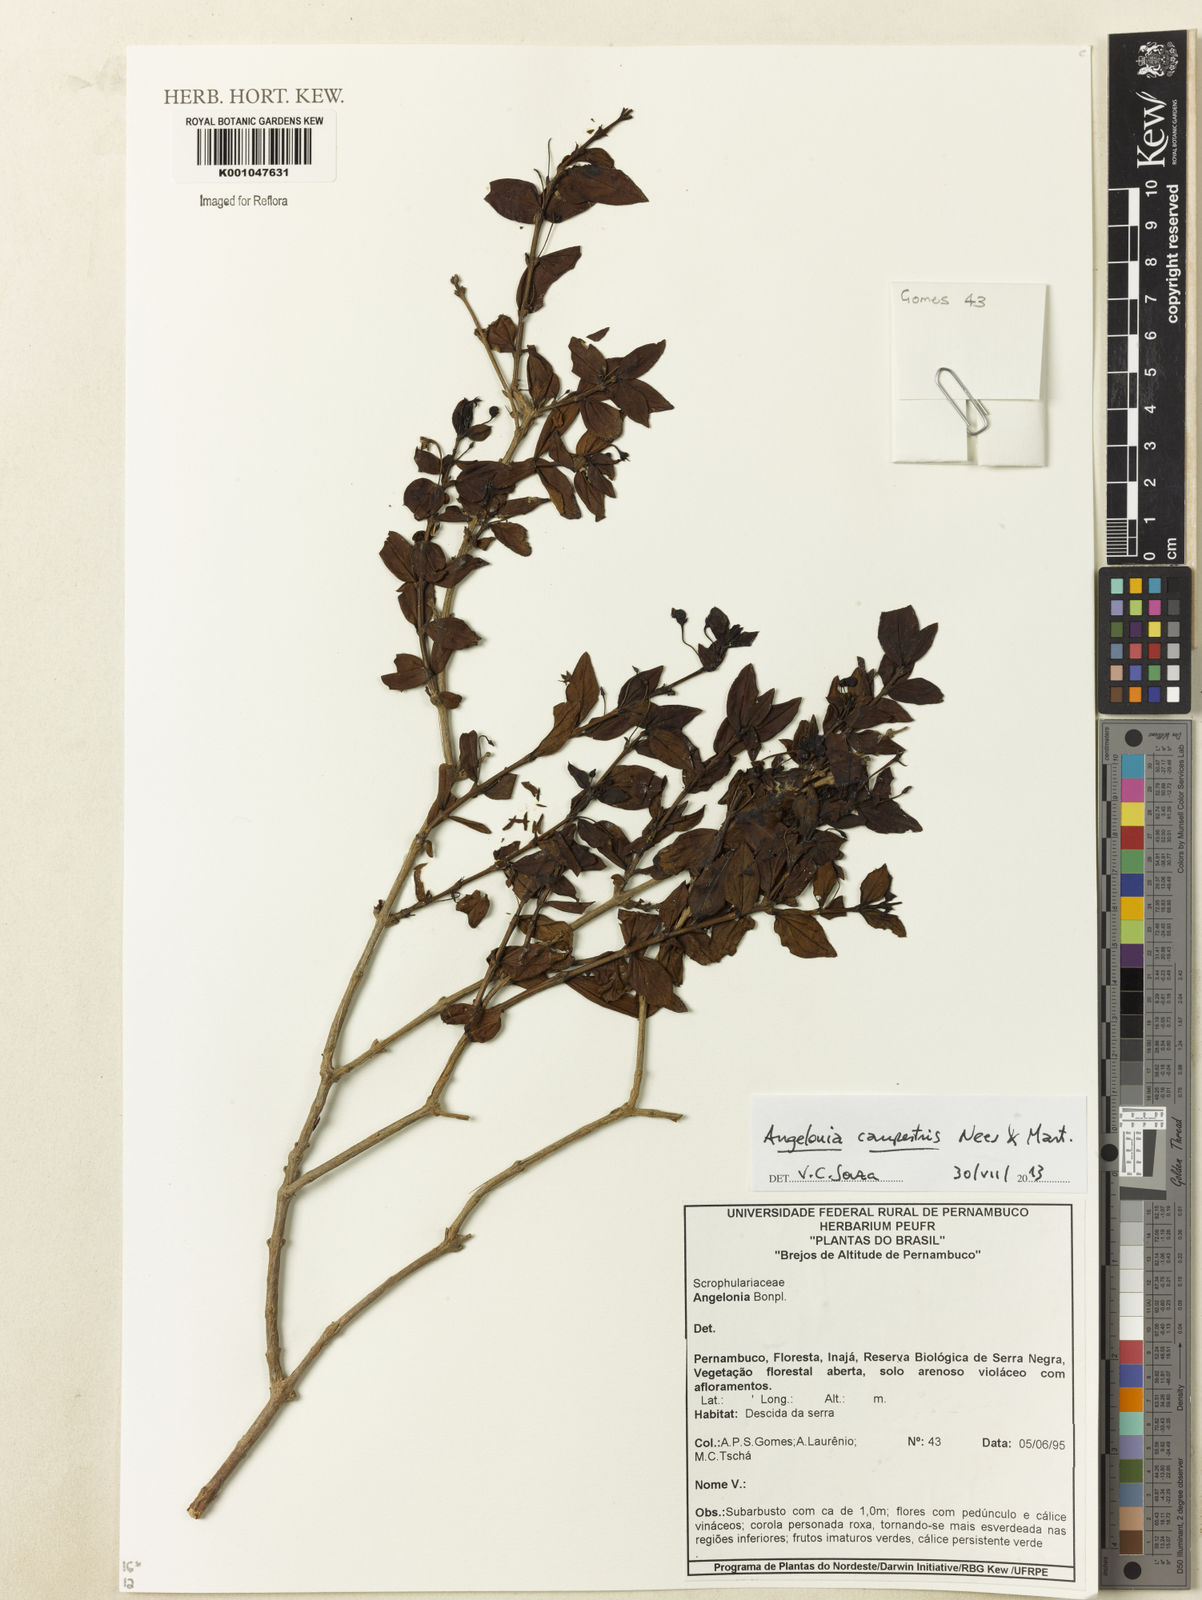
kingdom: Plantae
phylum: Tracheophyta
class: Magnoliopsida
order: Lamiales
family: Plantaginaceae
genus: Angelonia
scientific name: Angelonia campestris
